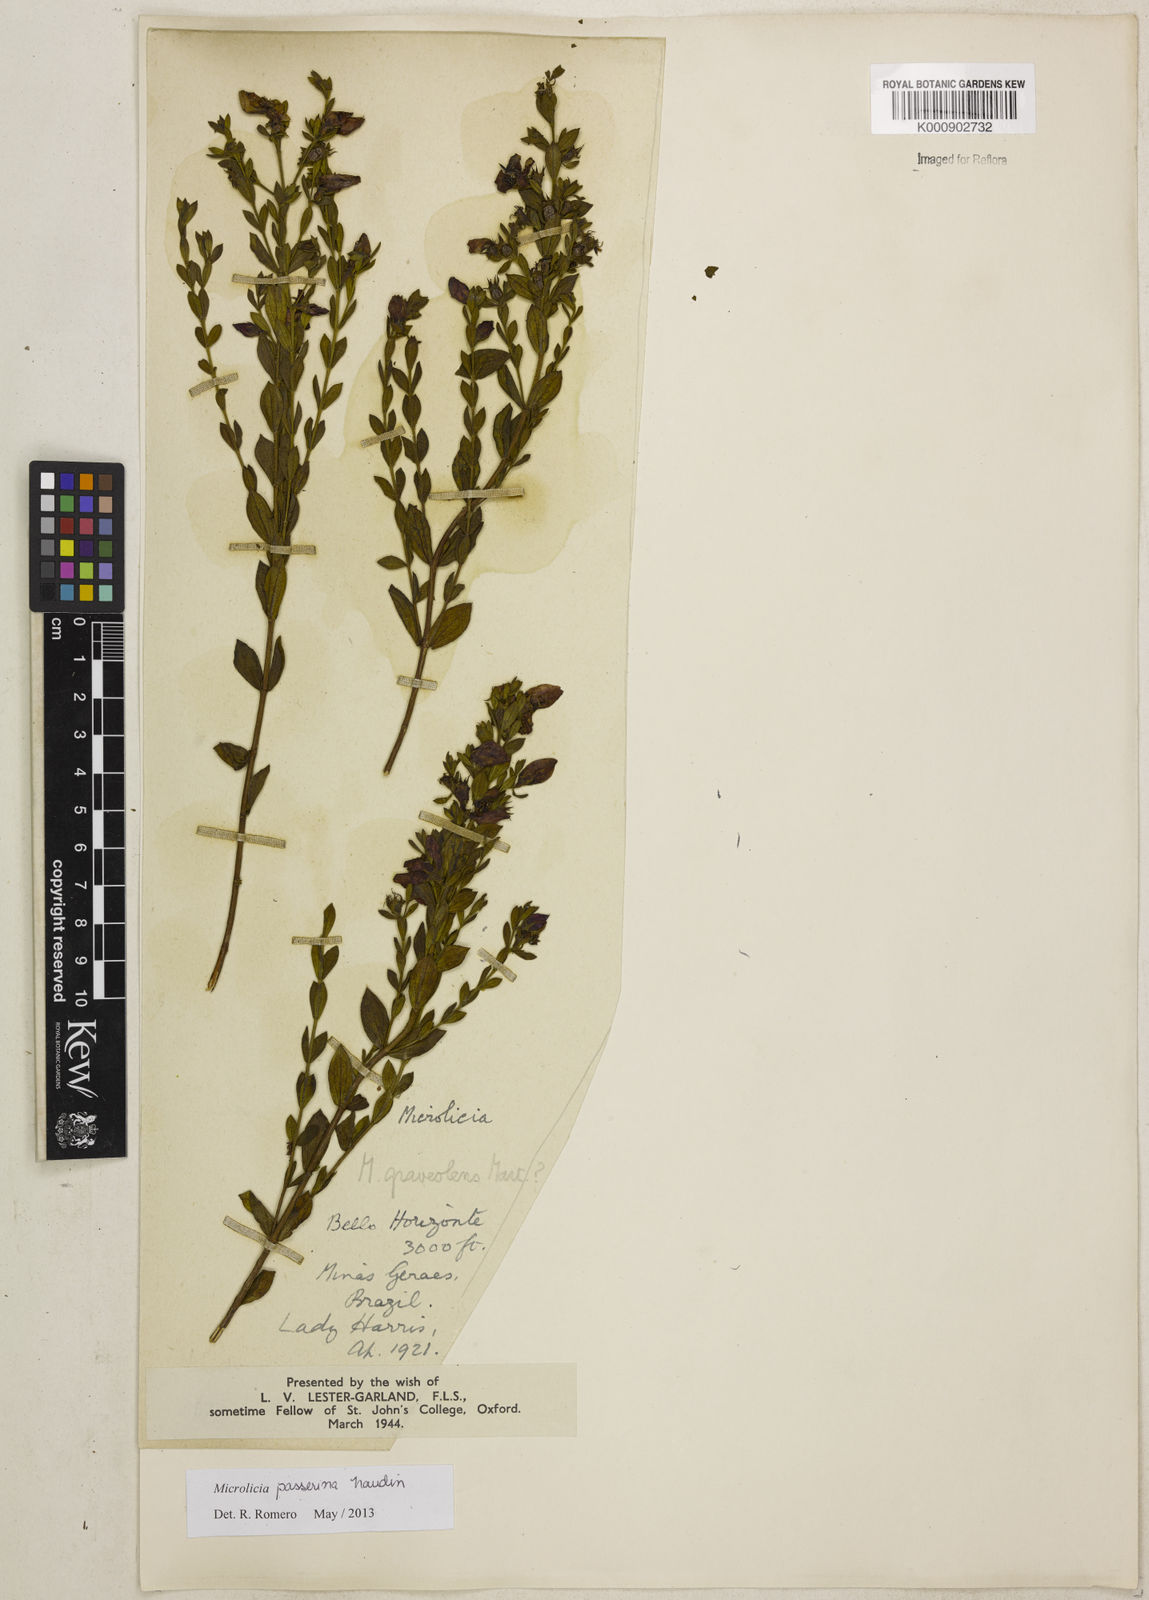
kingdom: Plantae
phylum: Tracheophyta
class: Magnoliopsida
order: Myrtales
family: Melastomataceae
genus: Microlicia
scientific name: Microlicia passerina
